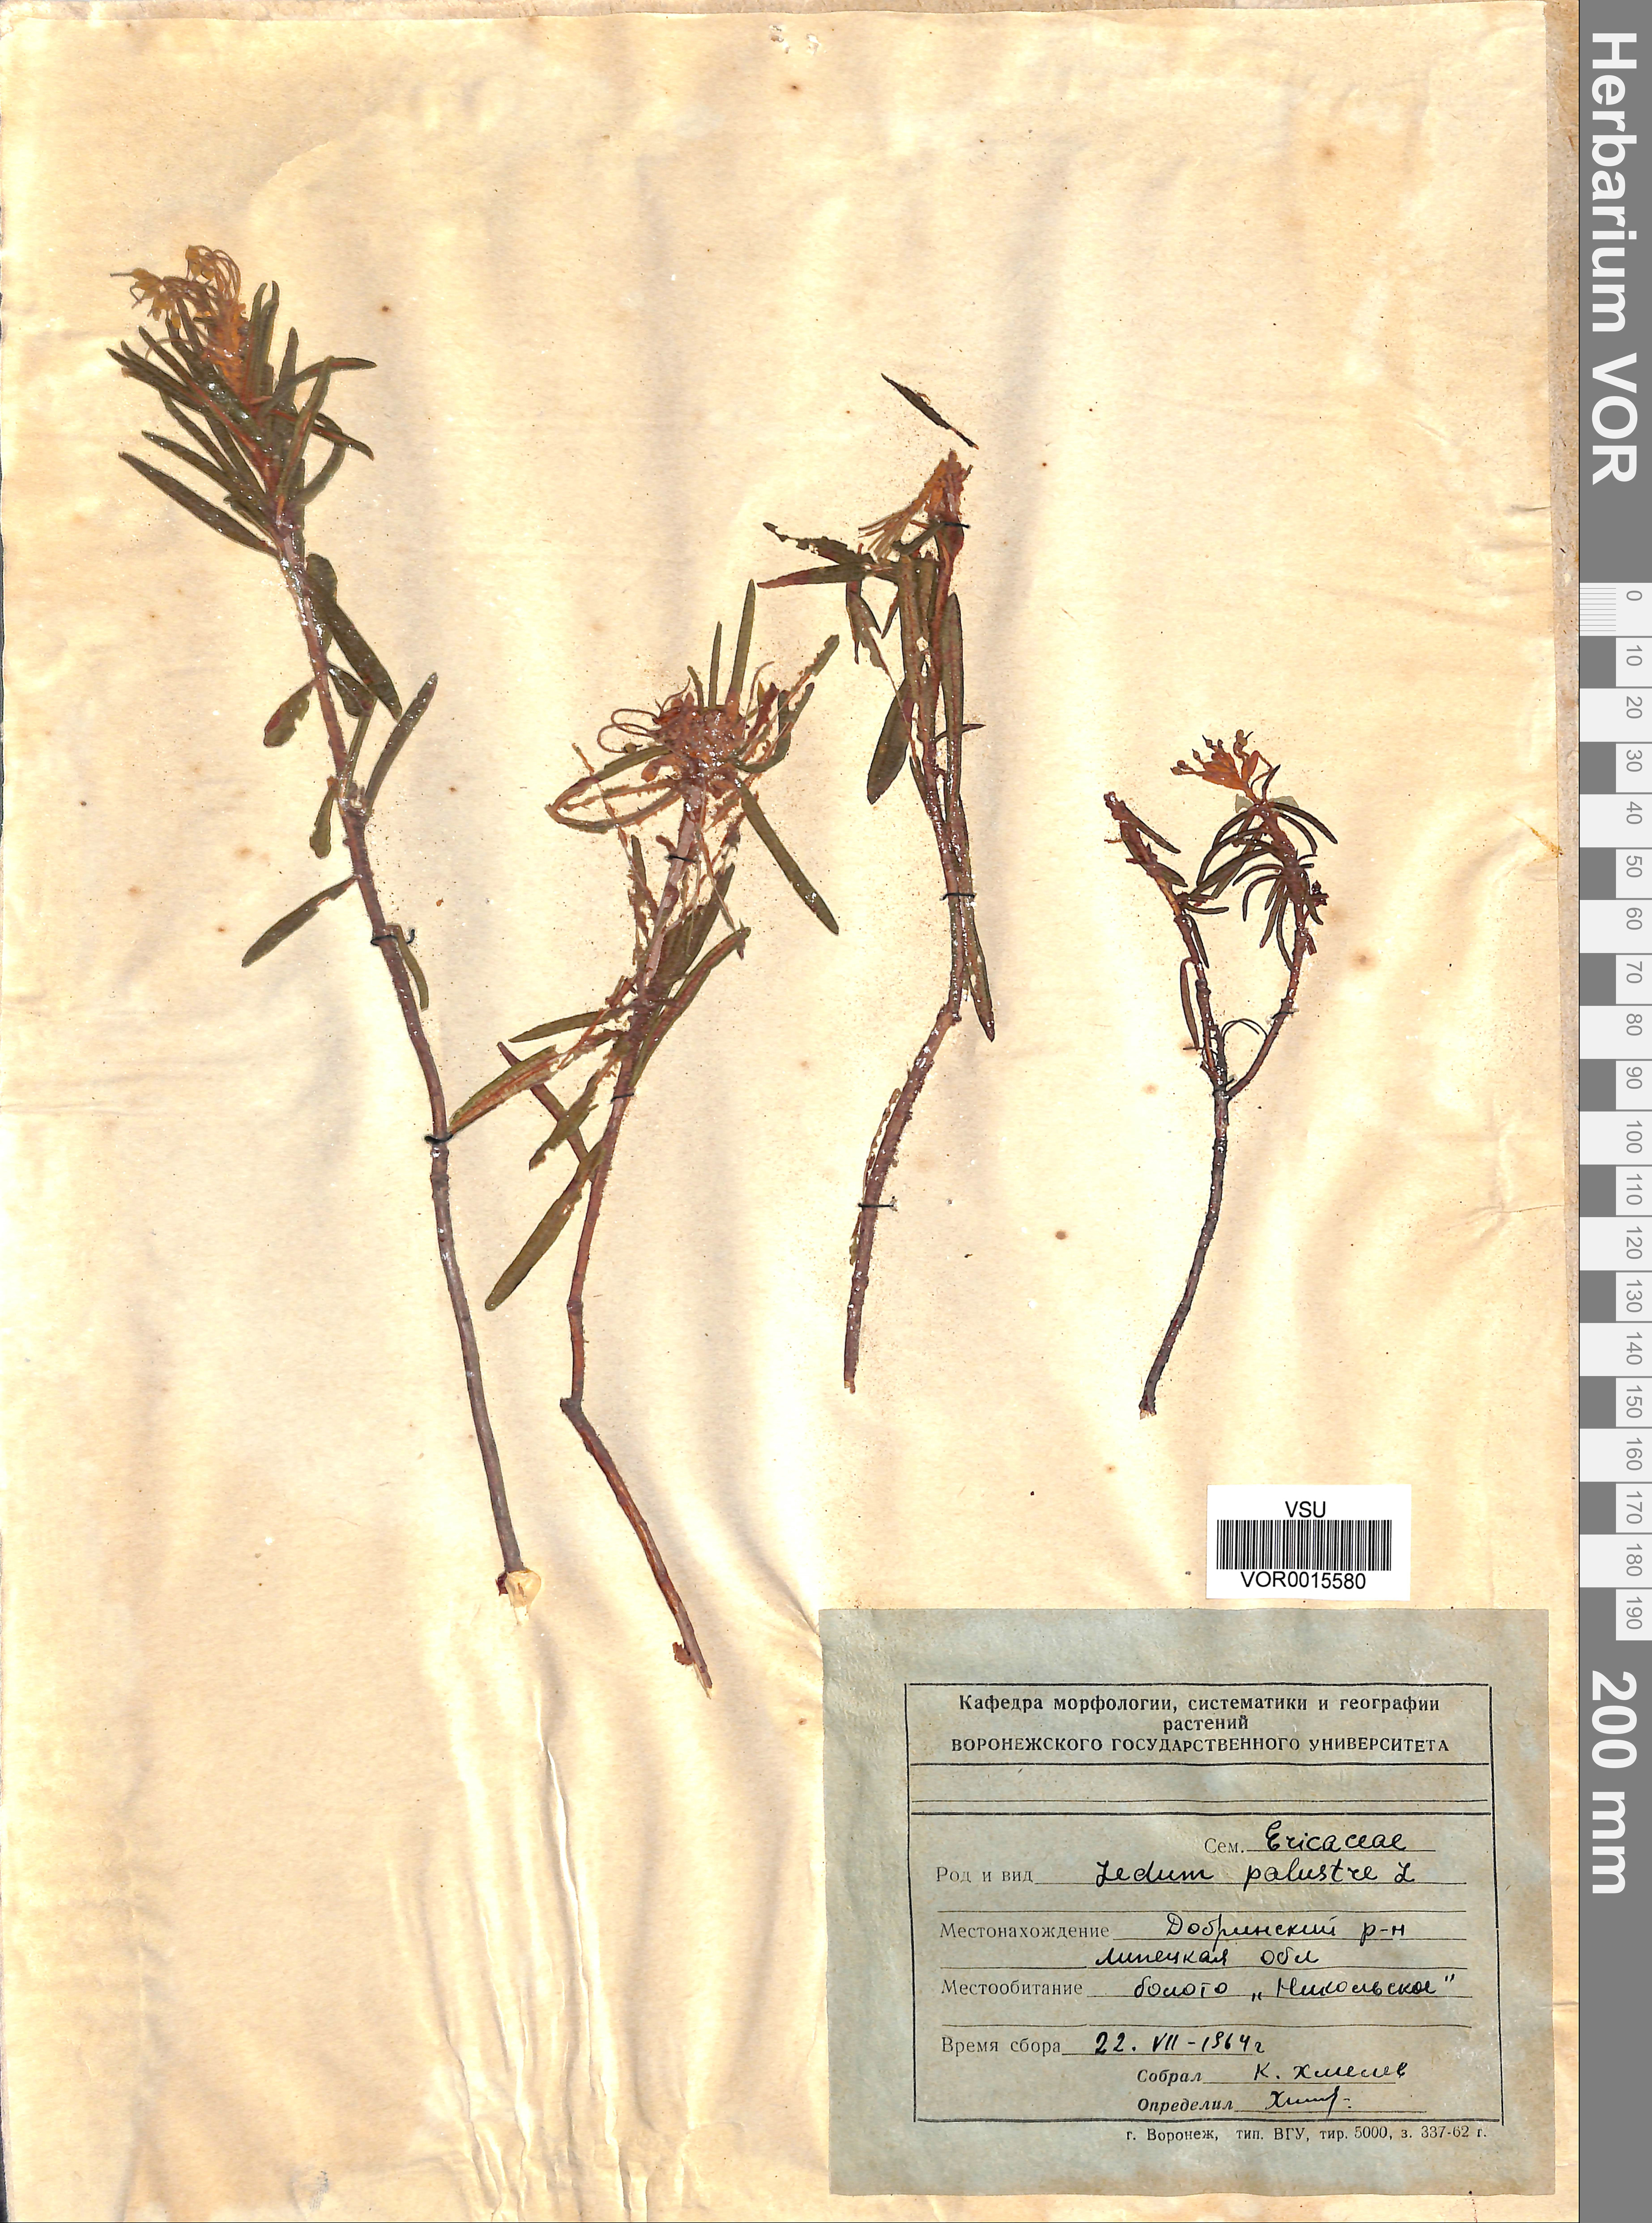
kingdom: Plantae
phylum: Tracheophyta
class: Magnoliopsida
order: Ericales
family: Ericaceae
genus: Rhododendron
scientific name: Rhododendron tomentosum
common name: Marsh labrador tea
